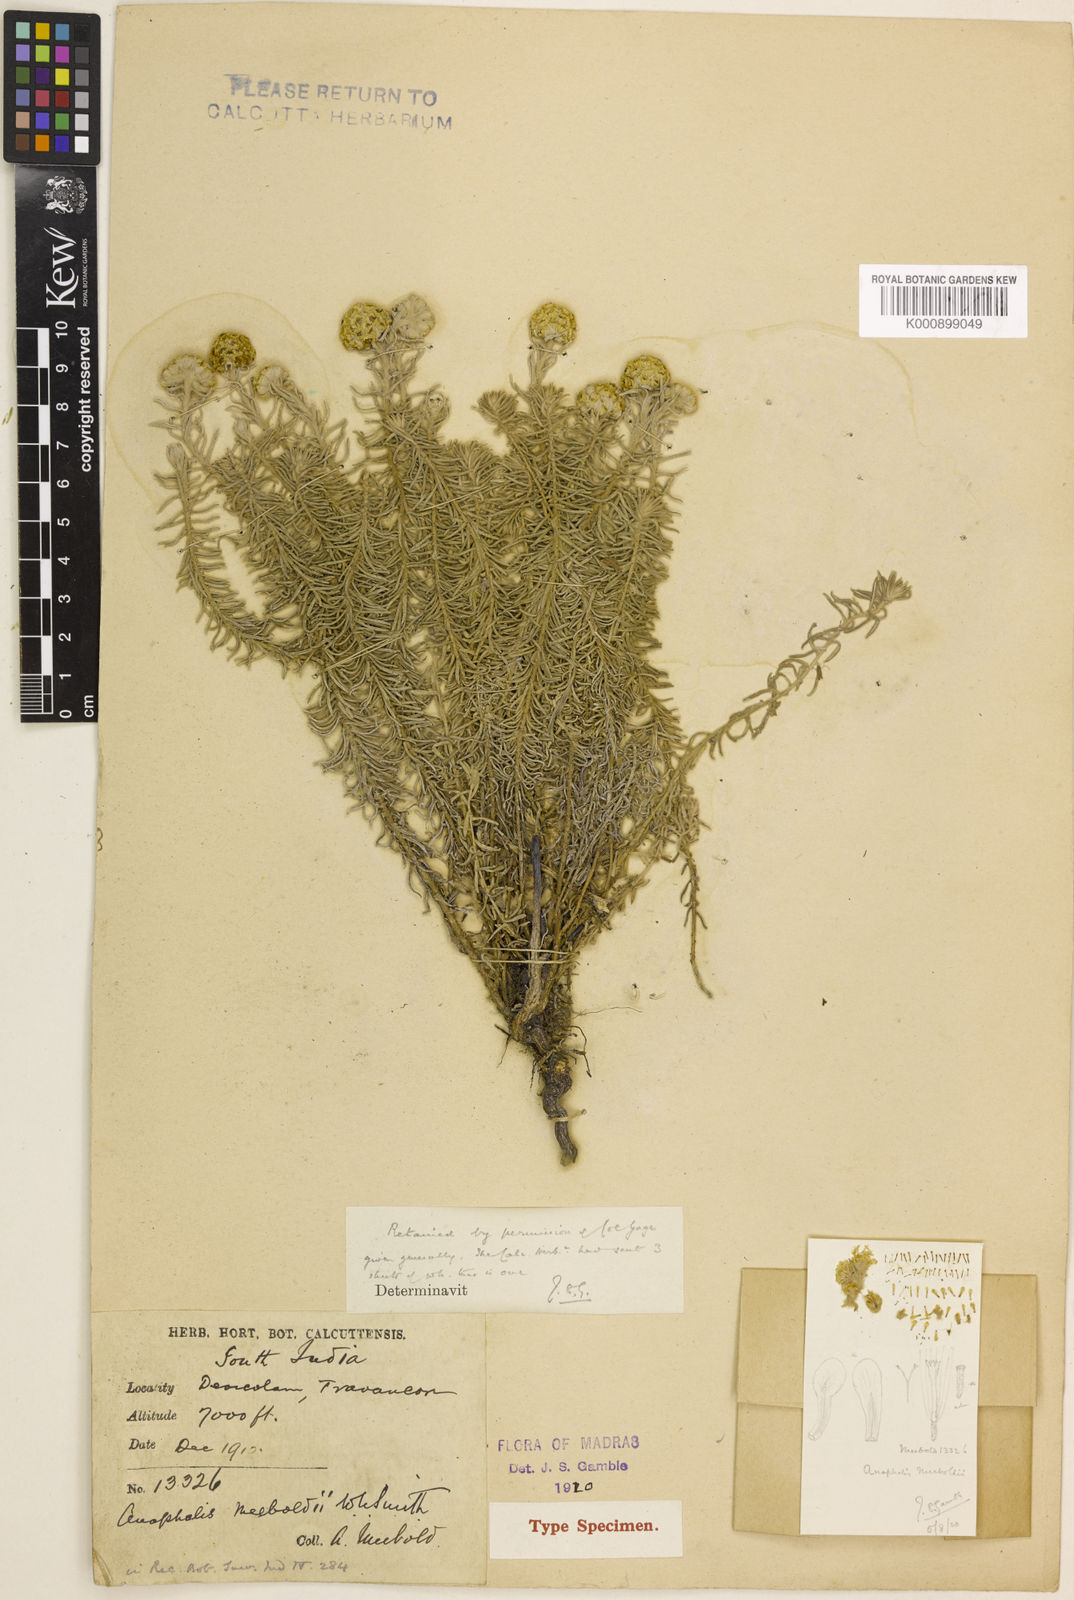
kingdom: Plantae
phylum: Tracheophyta
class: Magnoliopsida
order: Asterales
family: Asteraceae
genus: Anaphalis
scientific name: Anaphalis meeboldii
